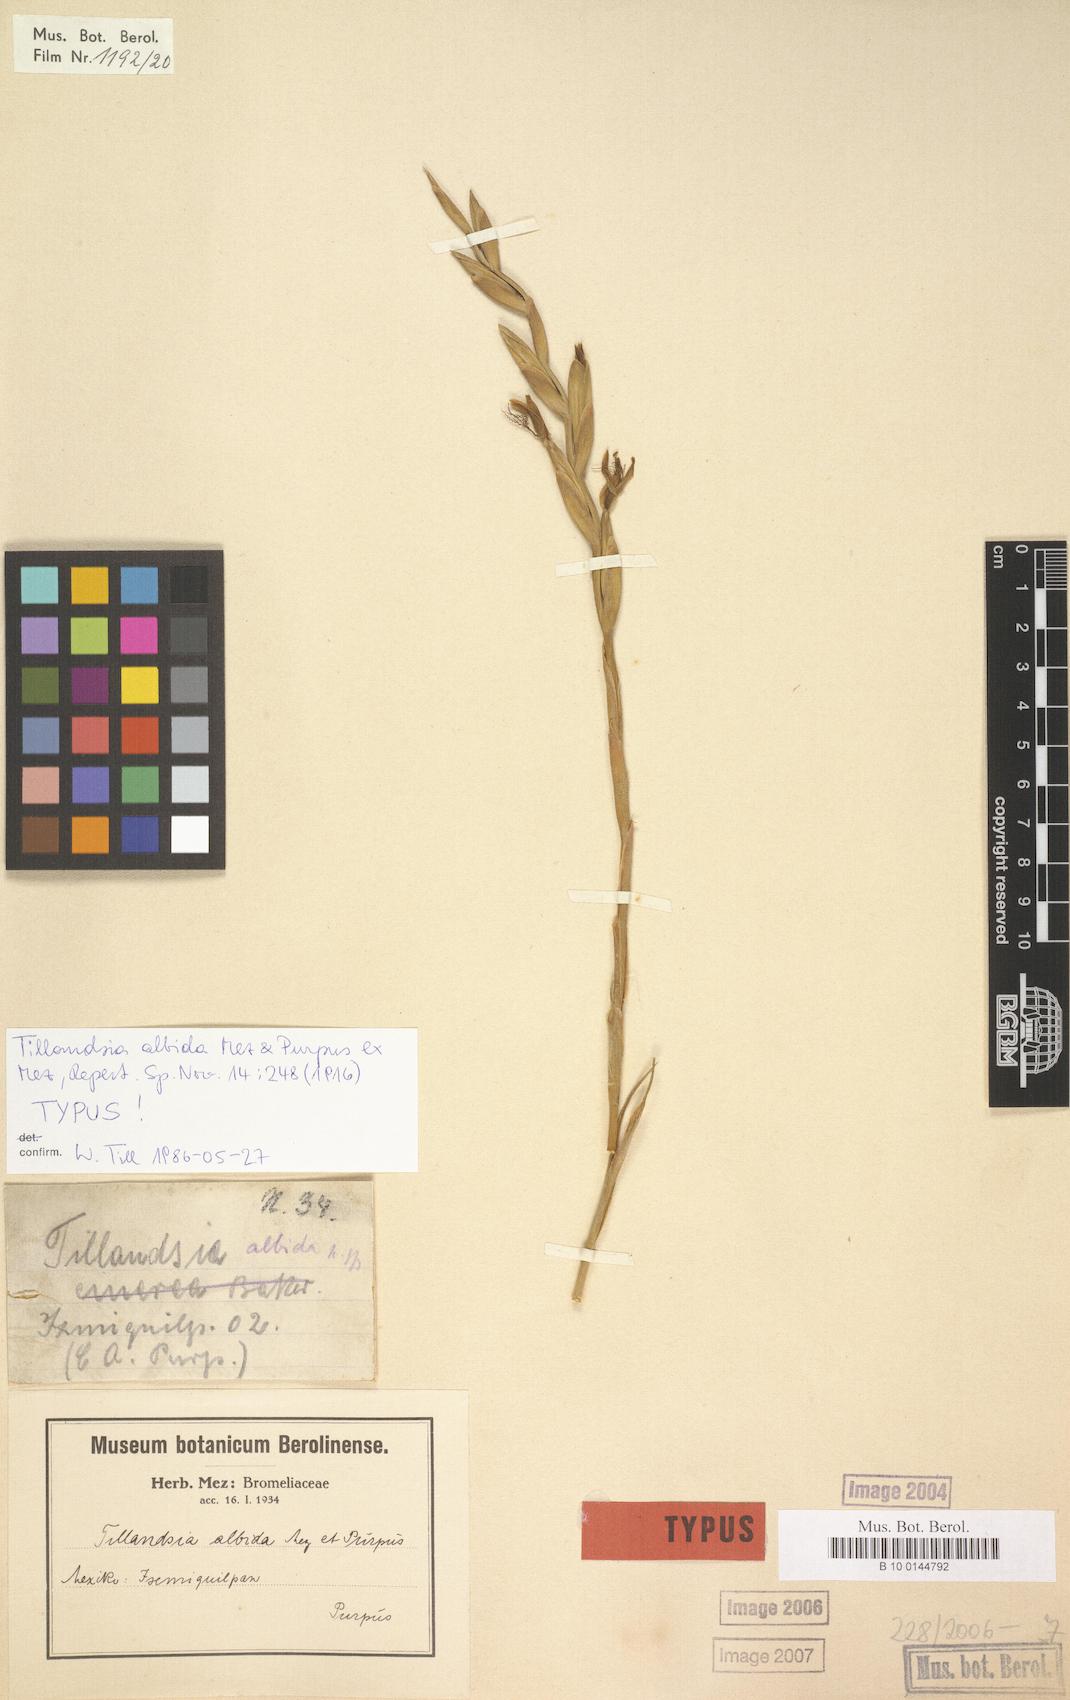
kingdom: Plantae
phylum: Tracheophyta
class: Liliopsida
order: Poales
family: Bromeliaceae
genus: Tillandsia
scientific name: Tillandsia albida
